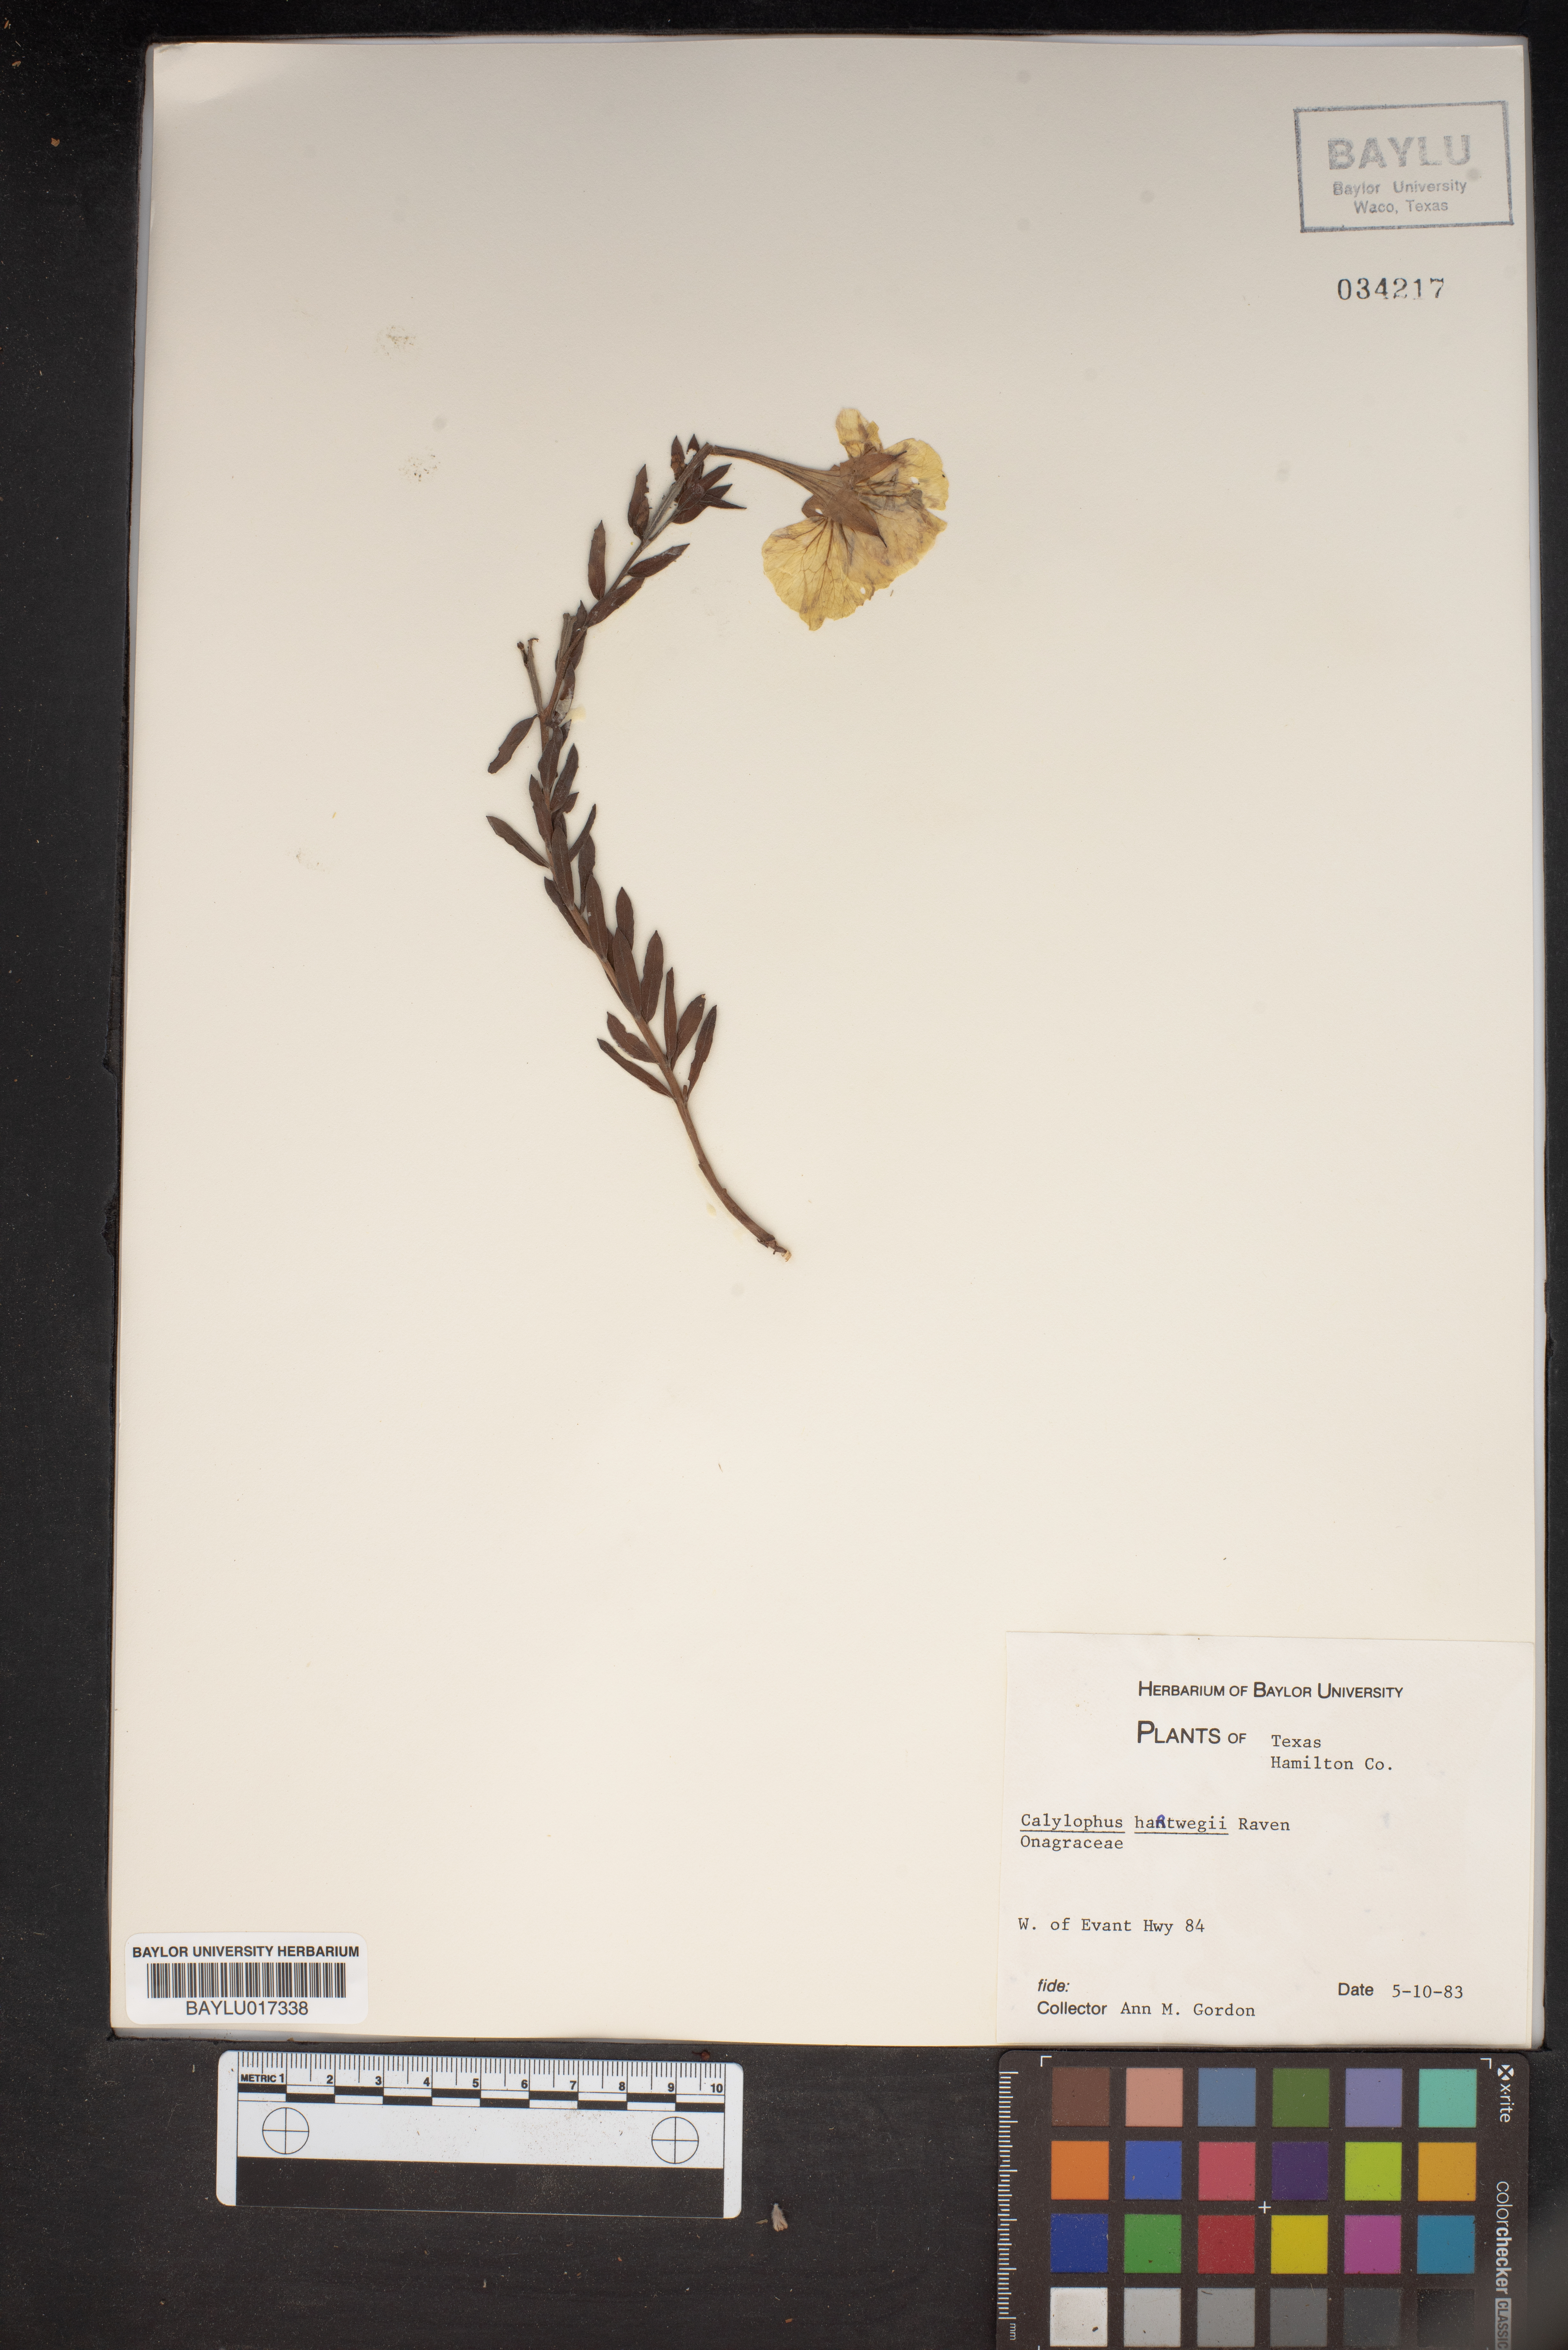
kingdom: Plantae
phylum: Tracheophyta
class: Magnoliopsida
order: Myrtales
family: Onagraceae
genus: Oenothera
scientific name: Oenothera hartwegii
